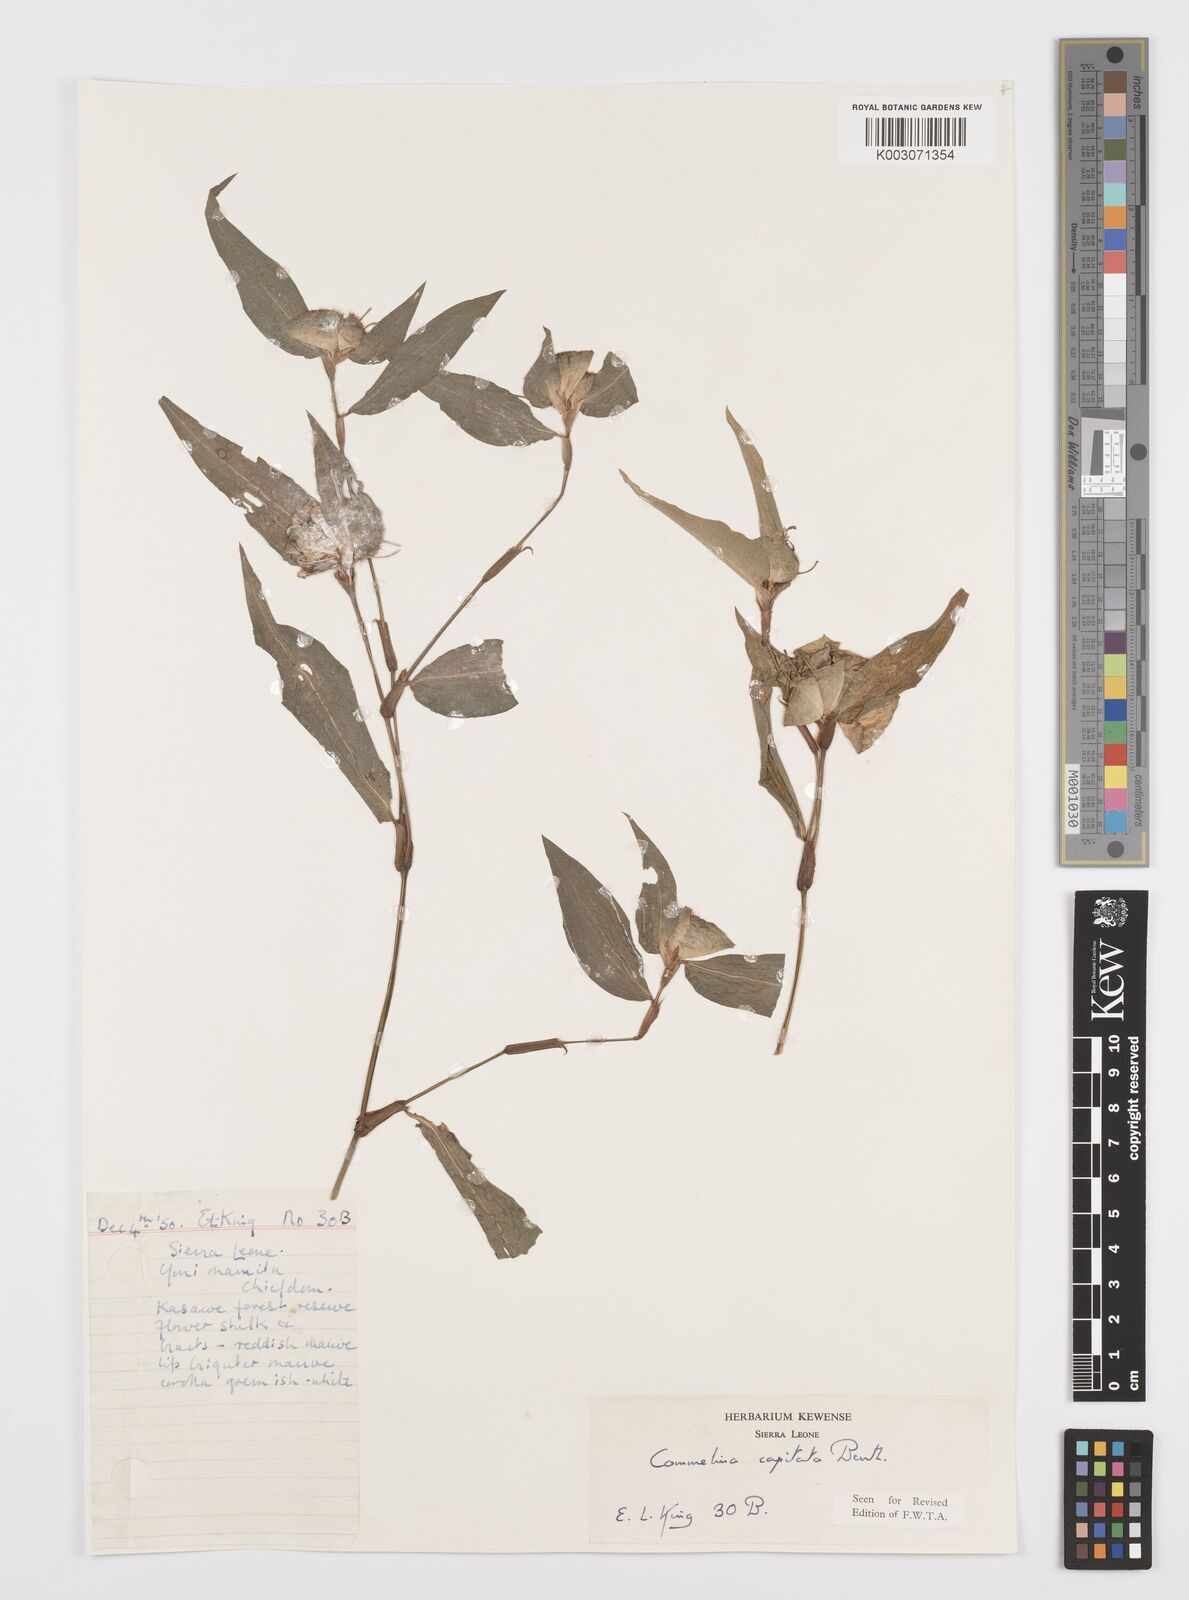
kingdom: Plantae
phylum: Tracheophyta
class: Liliopsida
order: Commelinales
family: Commelinaceae
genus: Commelina
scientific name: Commelina capitata
